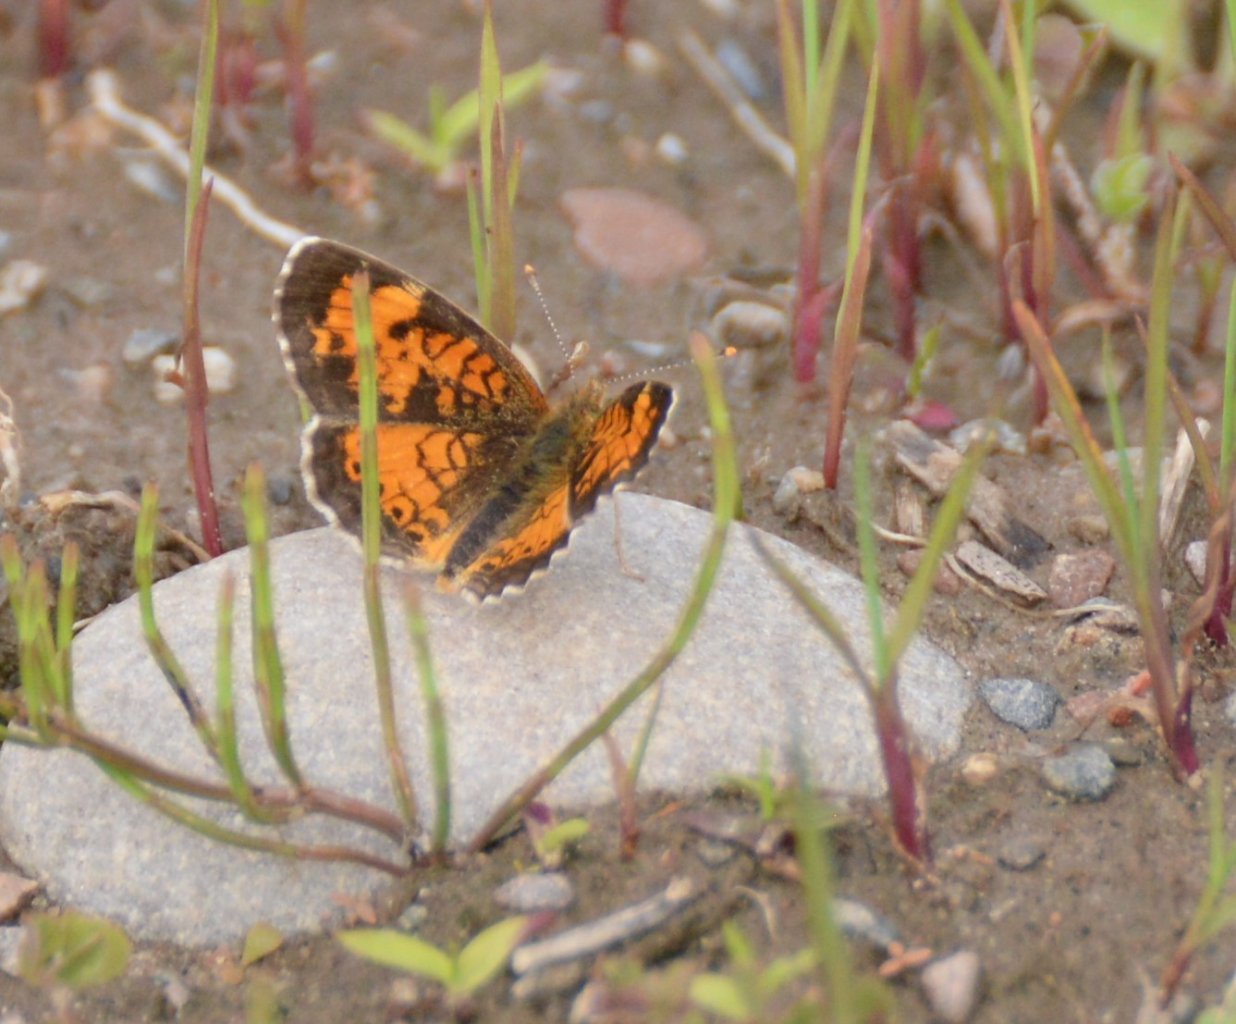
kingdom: Animalia
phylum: Arthropoda
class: Insecta
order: Lepidoptera
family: Nymphalidae
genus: Phyciodes
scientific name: Phyciodes tharos
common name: Northern Crescent
